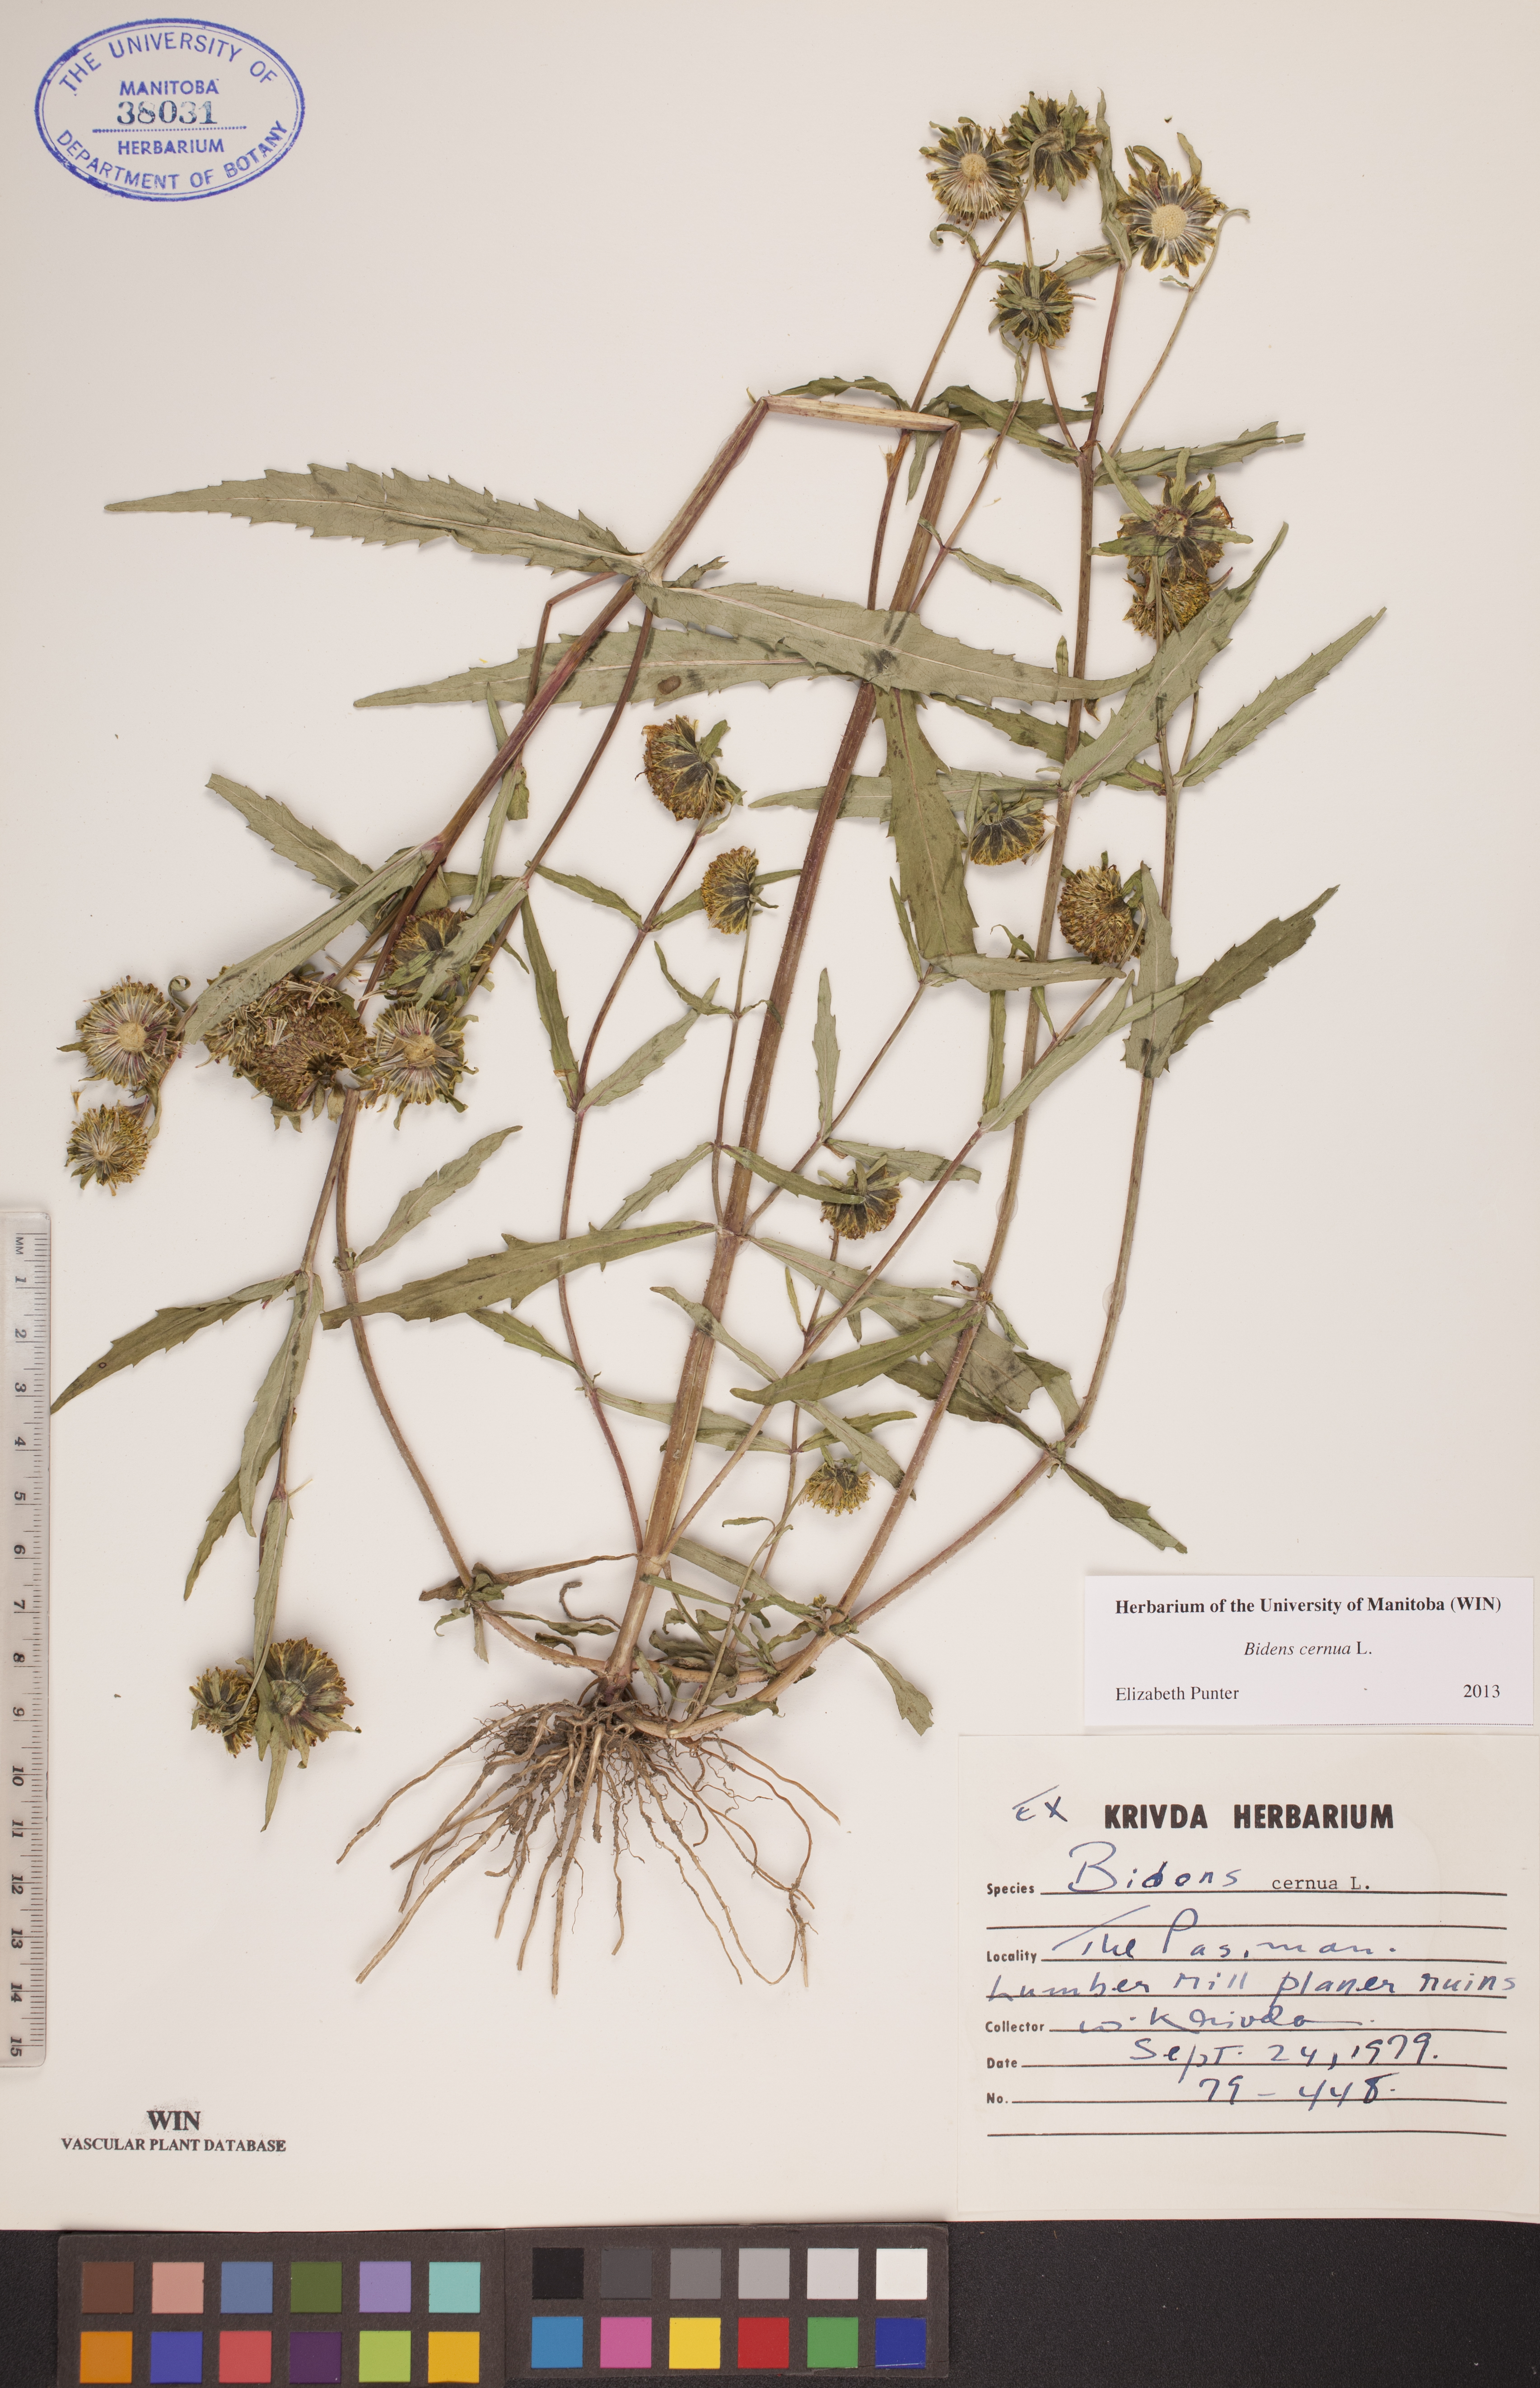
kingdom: Plantae
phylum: Tracheophyta
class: Magnoliopsida
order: Asterales
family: Asteraceae
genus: Bidens
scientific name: Bidens cernua
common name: Nodding bur-marigold
